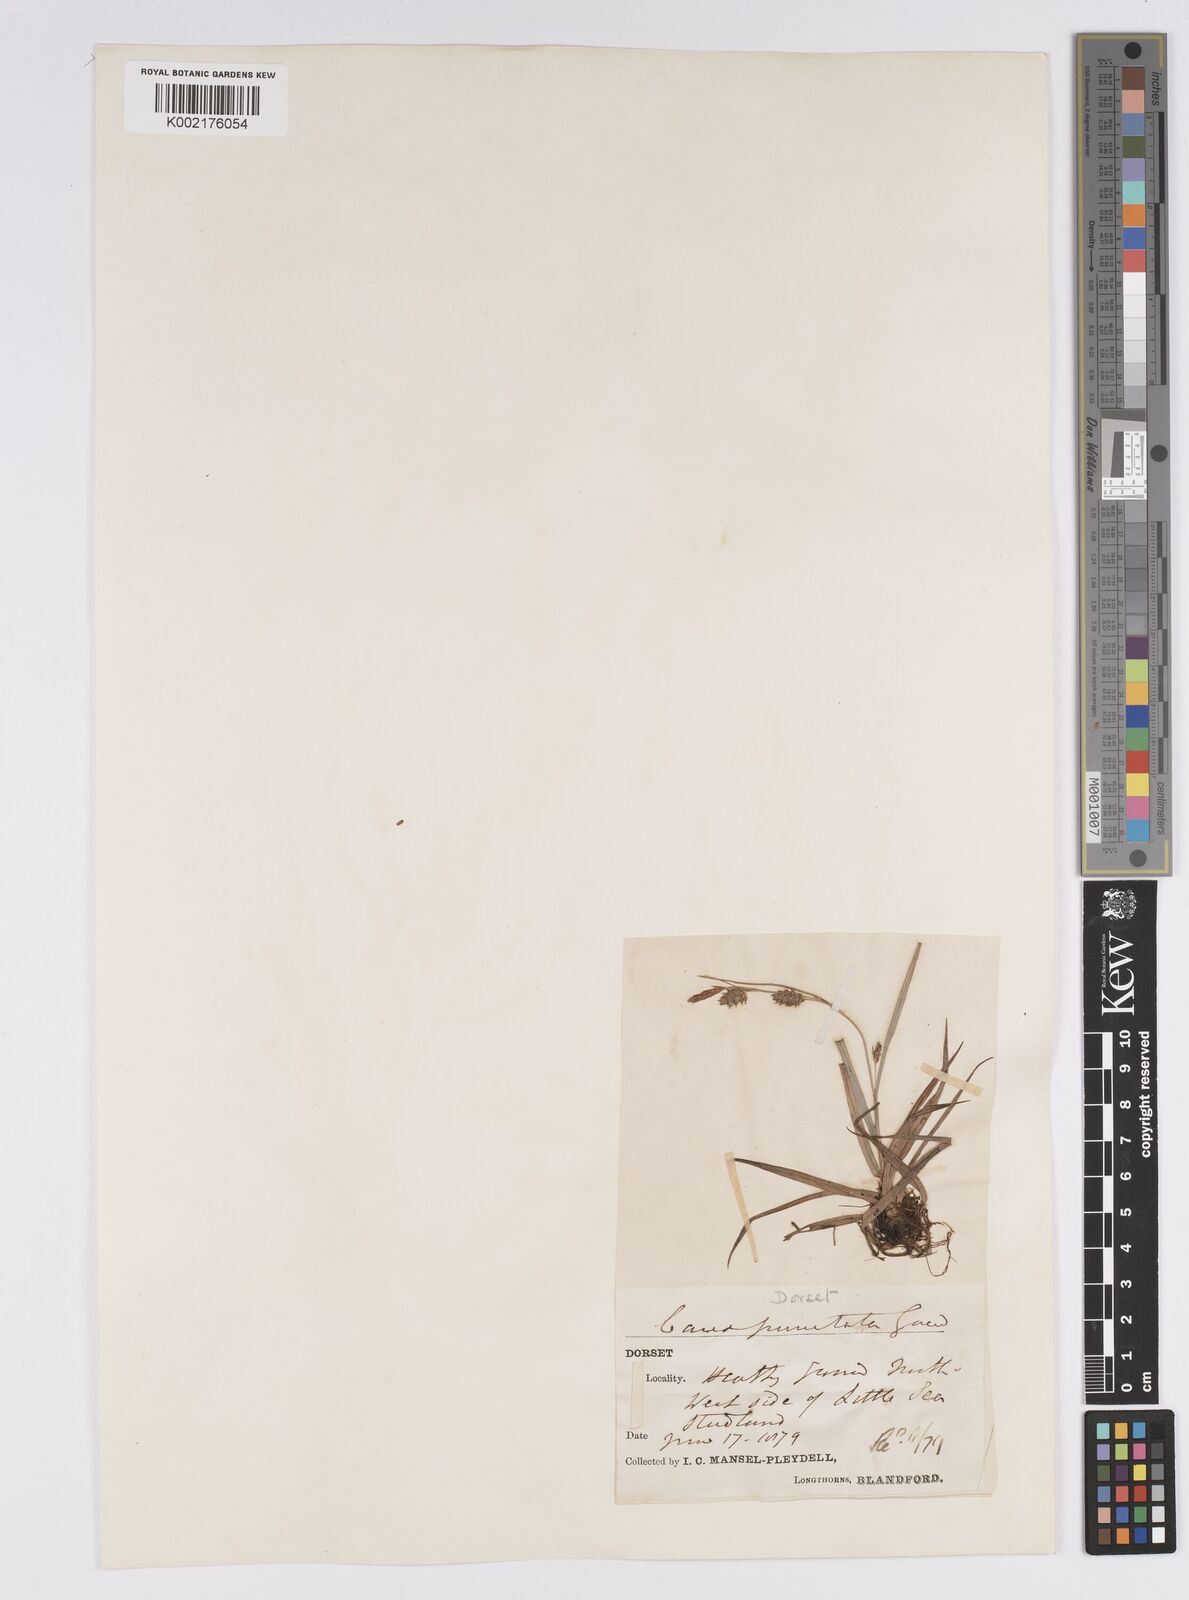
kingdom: Plantae
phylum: Tracheophyta
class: Liliopsida
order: Poales
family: Cyperaceae
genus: Carex
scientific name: Carex punctata
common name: Dotted sedge
